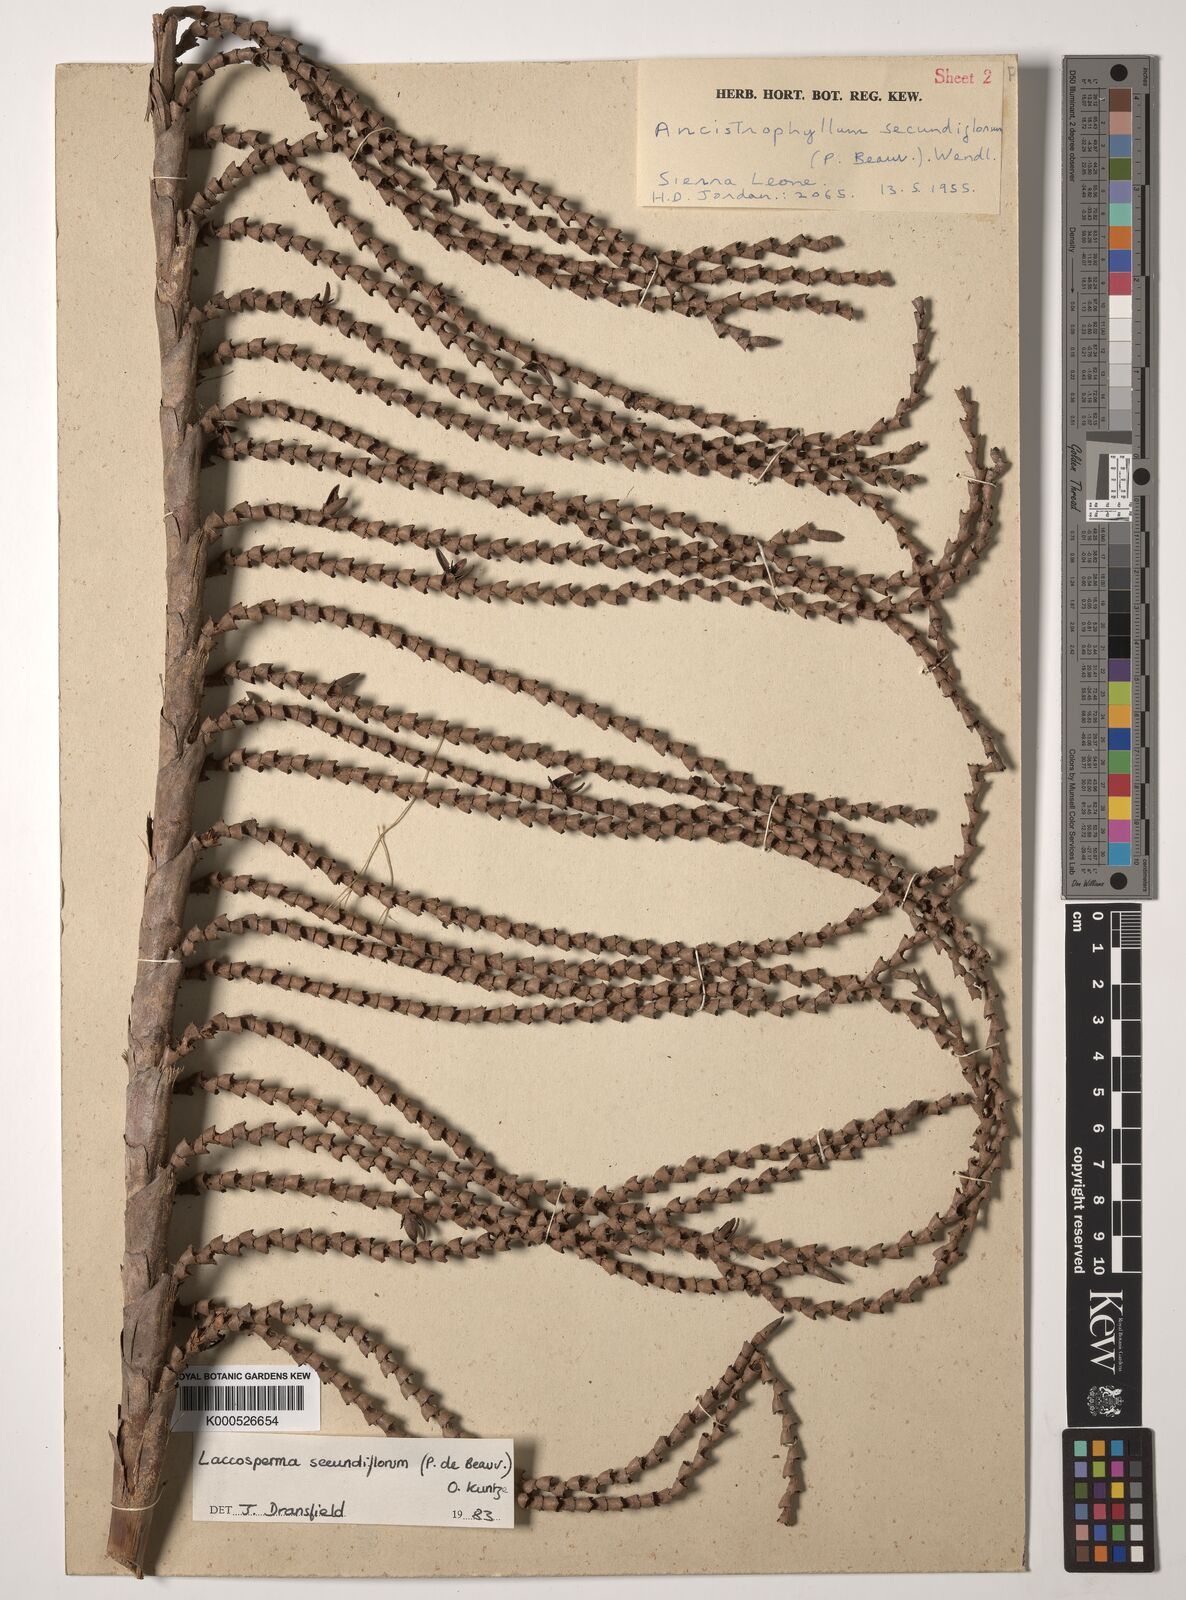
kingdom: Plantae
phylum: Tracheophyta
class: Liliopsida
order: Arecales
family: Arecaceae
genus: Laccosperma
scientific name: Laccosperma secundiflorum
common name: Rattan
